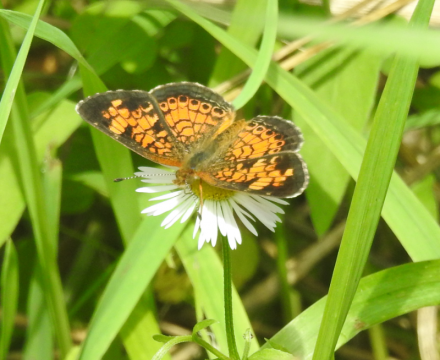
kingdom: Animalia
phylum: Arthropoda
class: Insecta
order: Lepidoptera
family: Nymphalidae
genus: Phyciodes
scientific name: Phyciodes tharos
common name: Pearl Crescent
